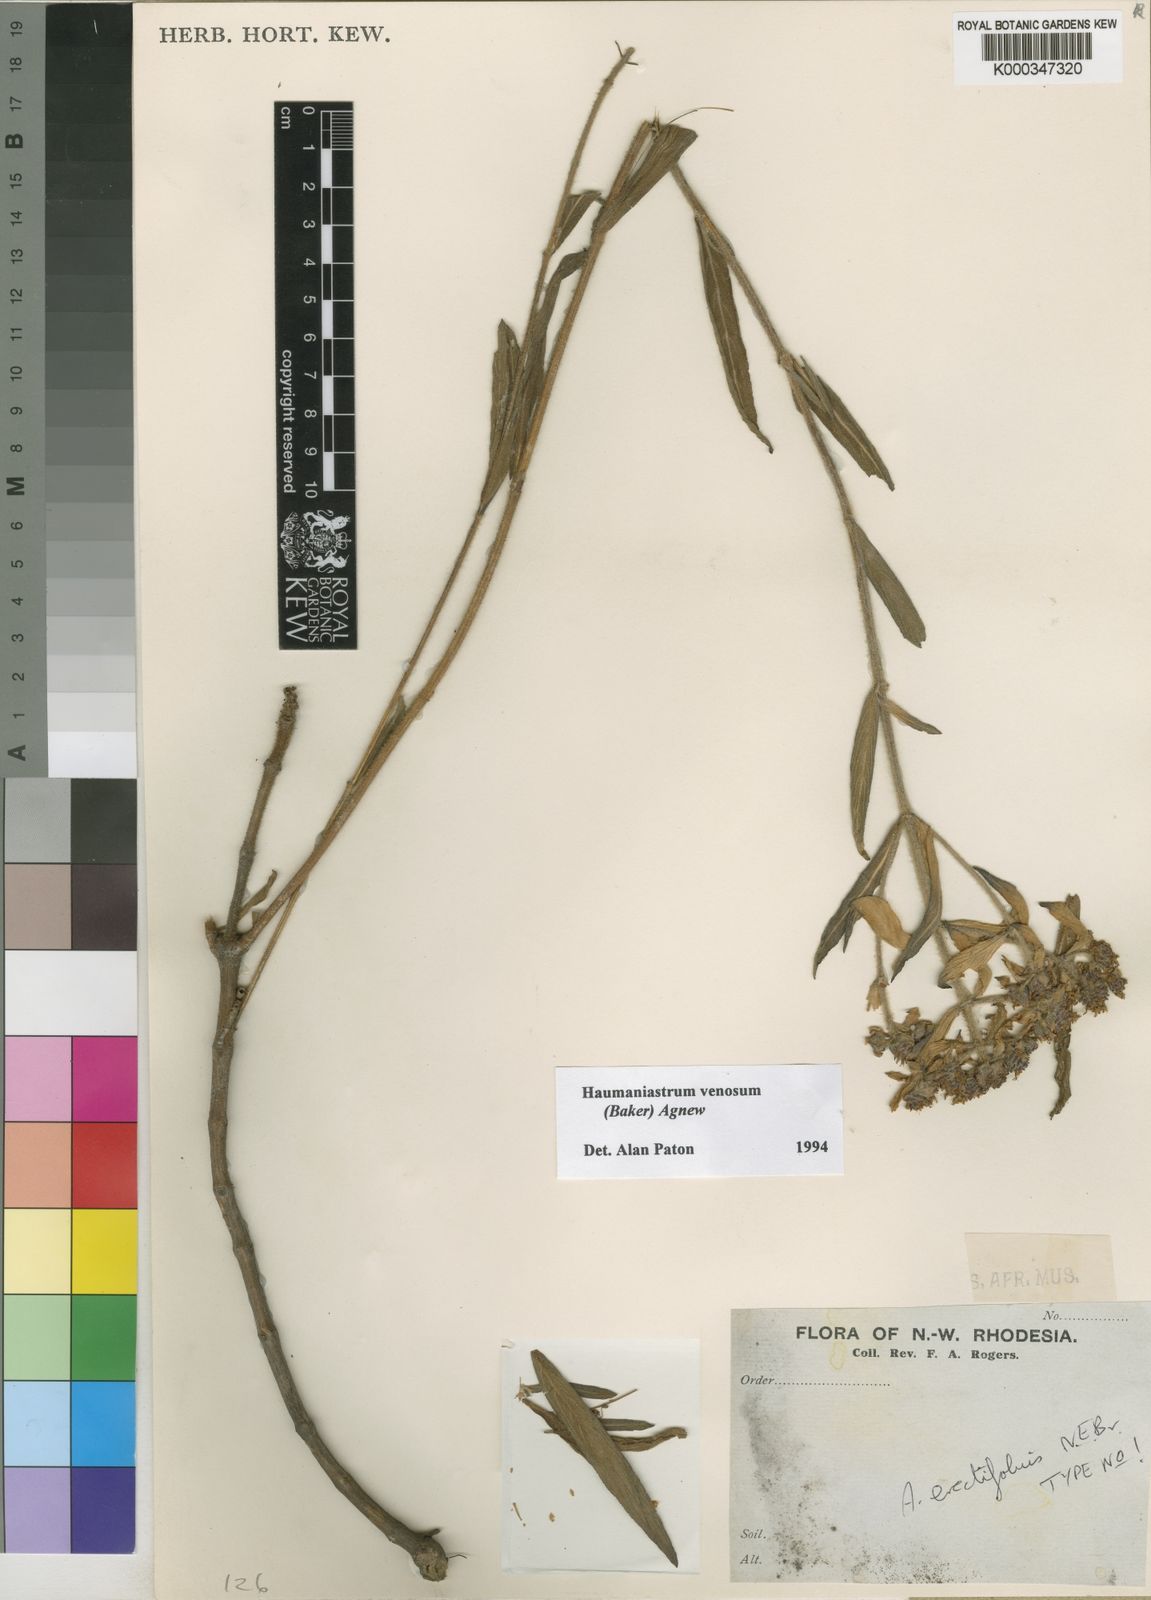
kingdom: Plantae
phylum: Tracheophyta
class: Magnoliopsida
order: Lamiales
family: Lamiaceae
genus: Haumaniastrum
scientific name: Haumaniastrum venosum
